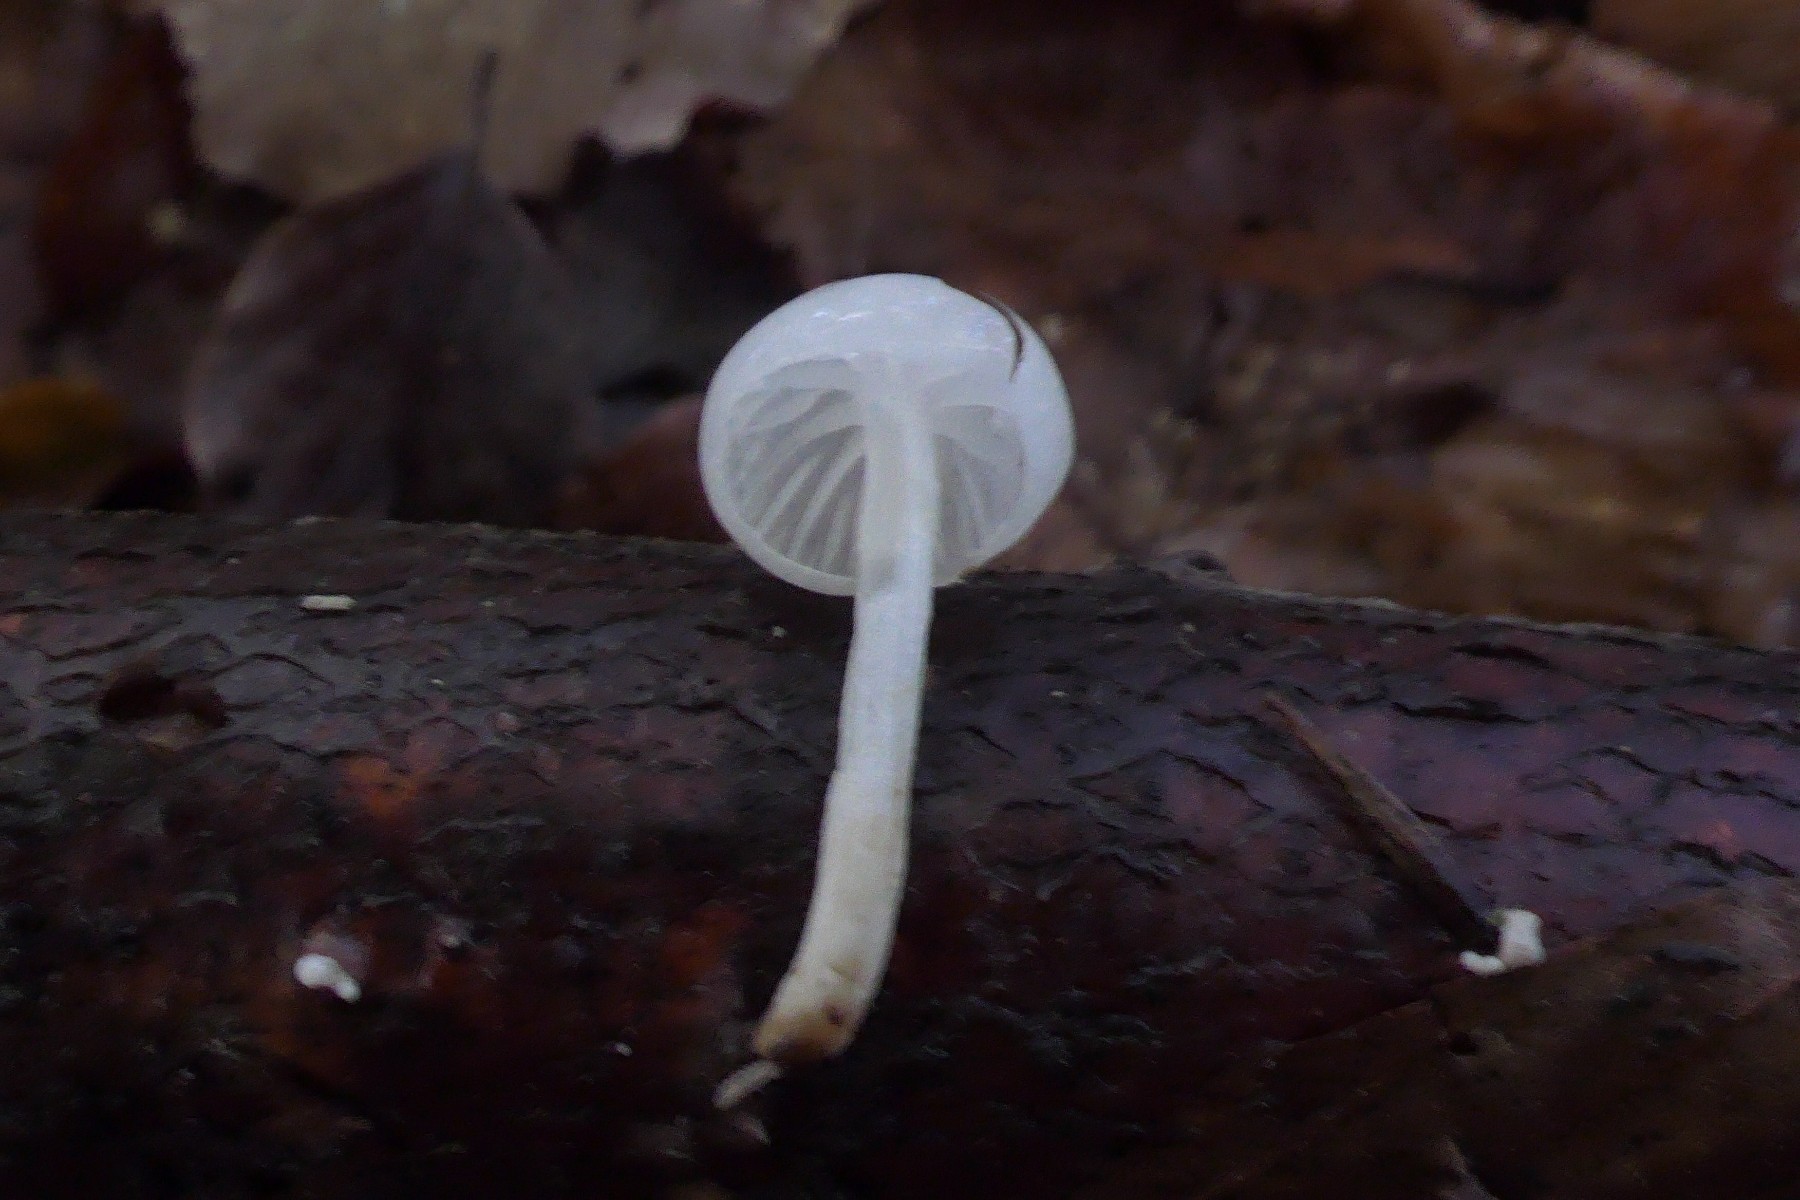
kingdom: Fungi
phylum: Basidiomycota
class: Agaricomycetes
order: Agaricales
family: Physalacriaceae
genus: Mucidula
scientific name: Mucidula mucida
